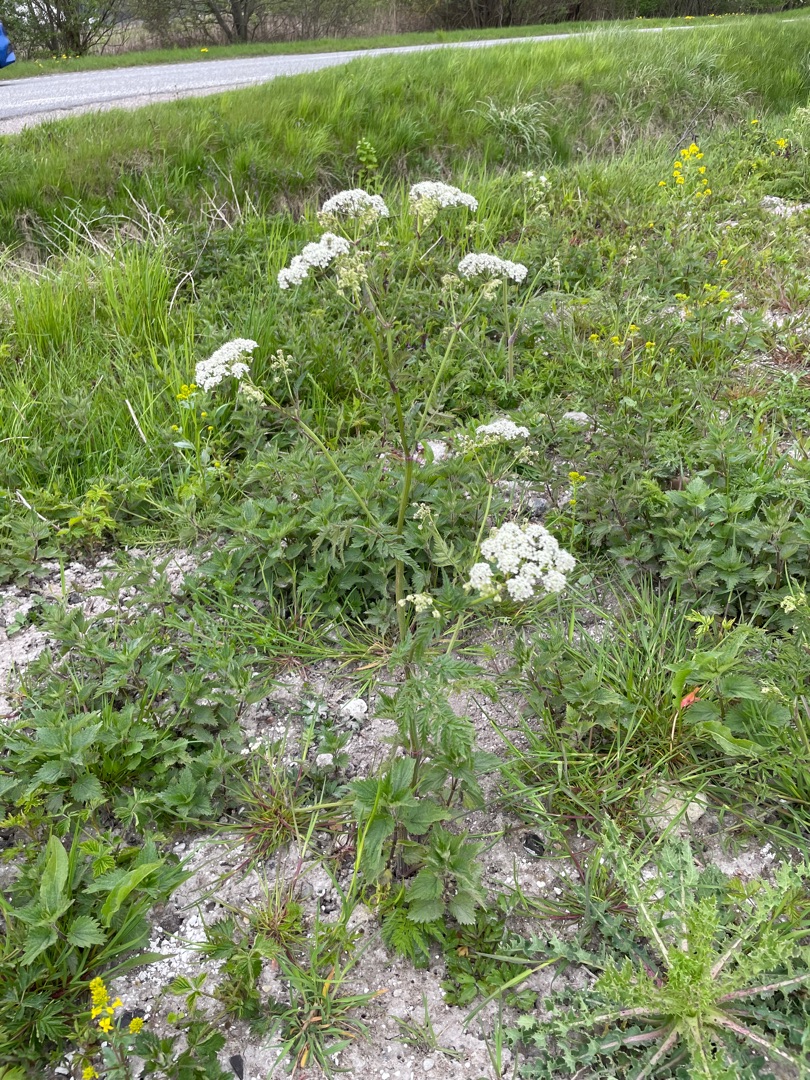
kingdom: Plantae
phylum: Tracheophyta
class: Magnoliopsida
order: Apiales
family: Apiaceae
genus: Anthriscus
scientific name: Anthriscus sylvestris
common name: Vild kørvel
